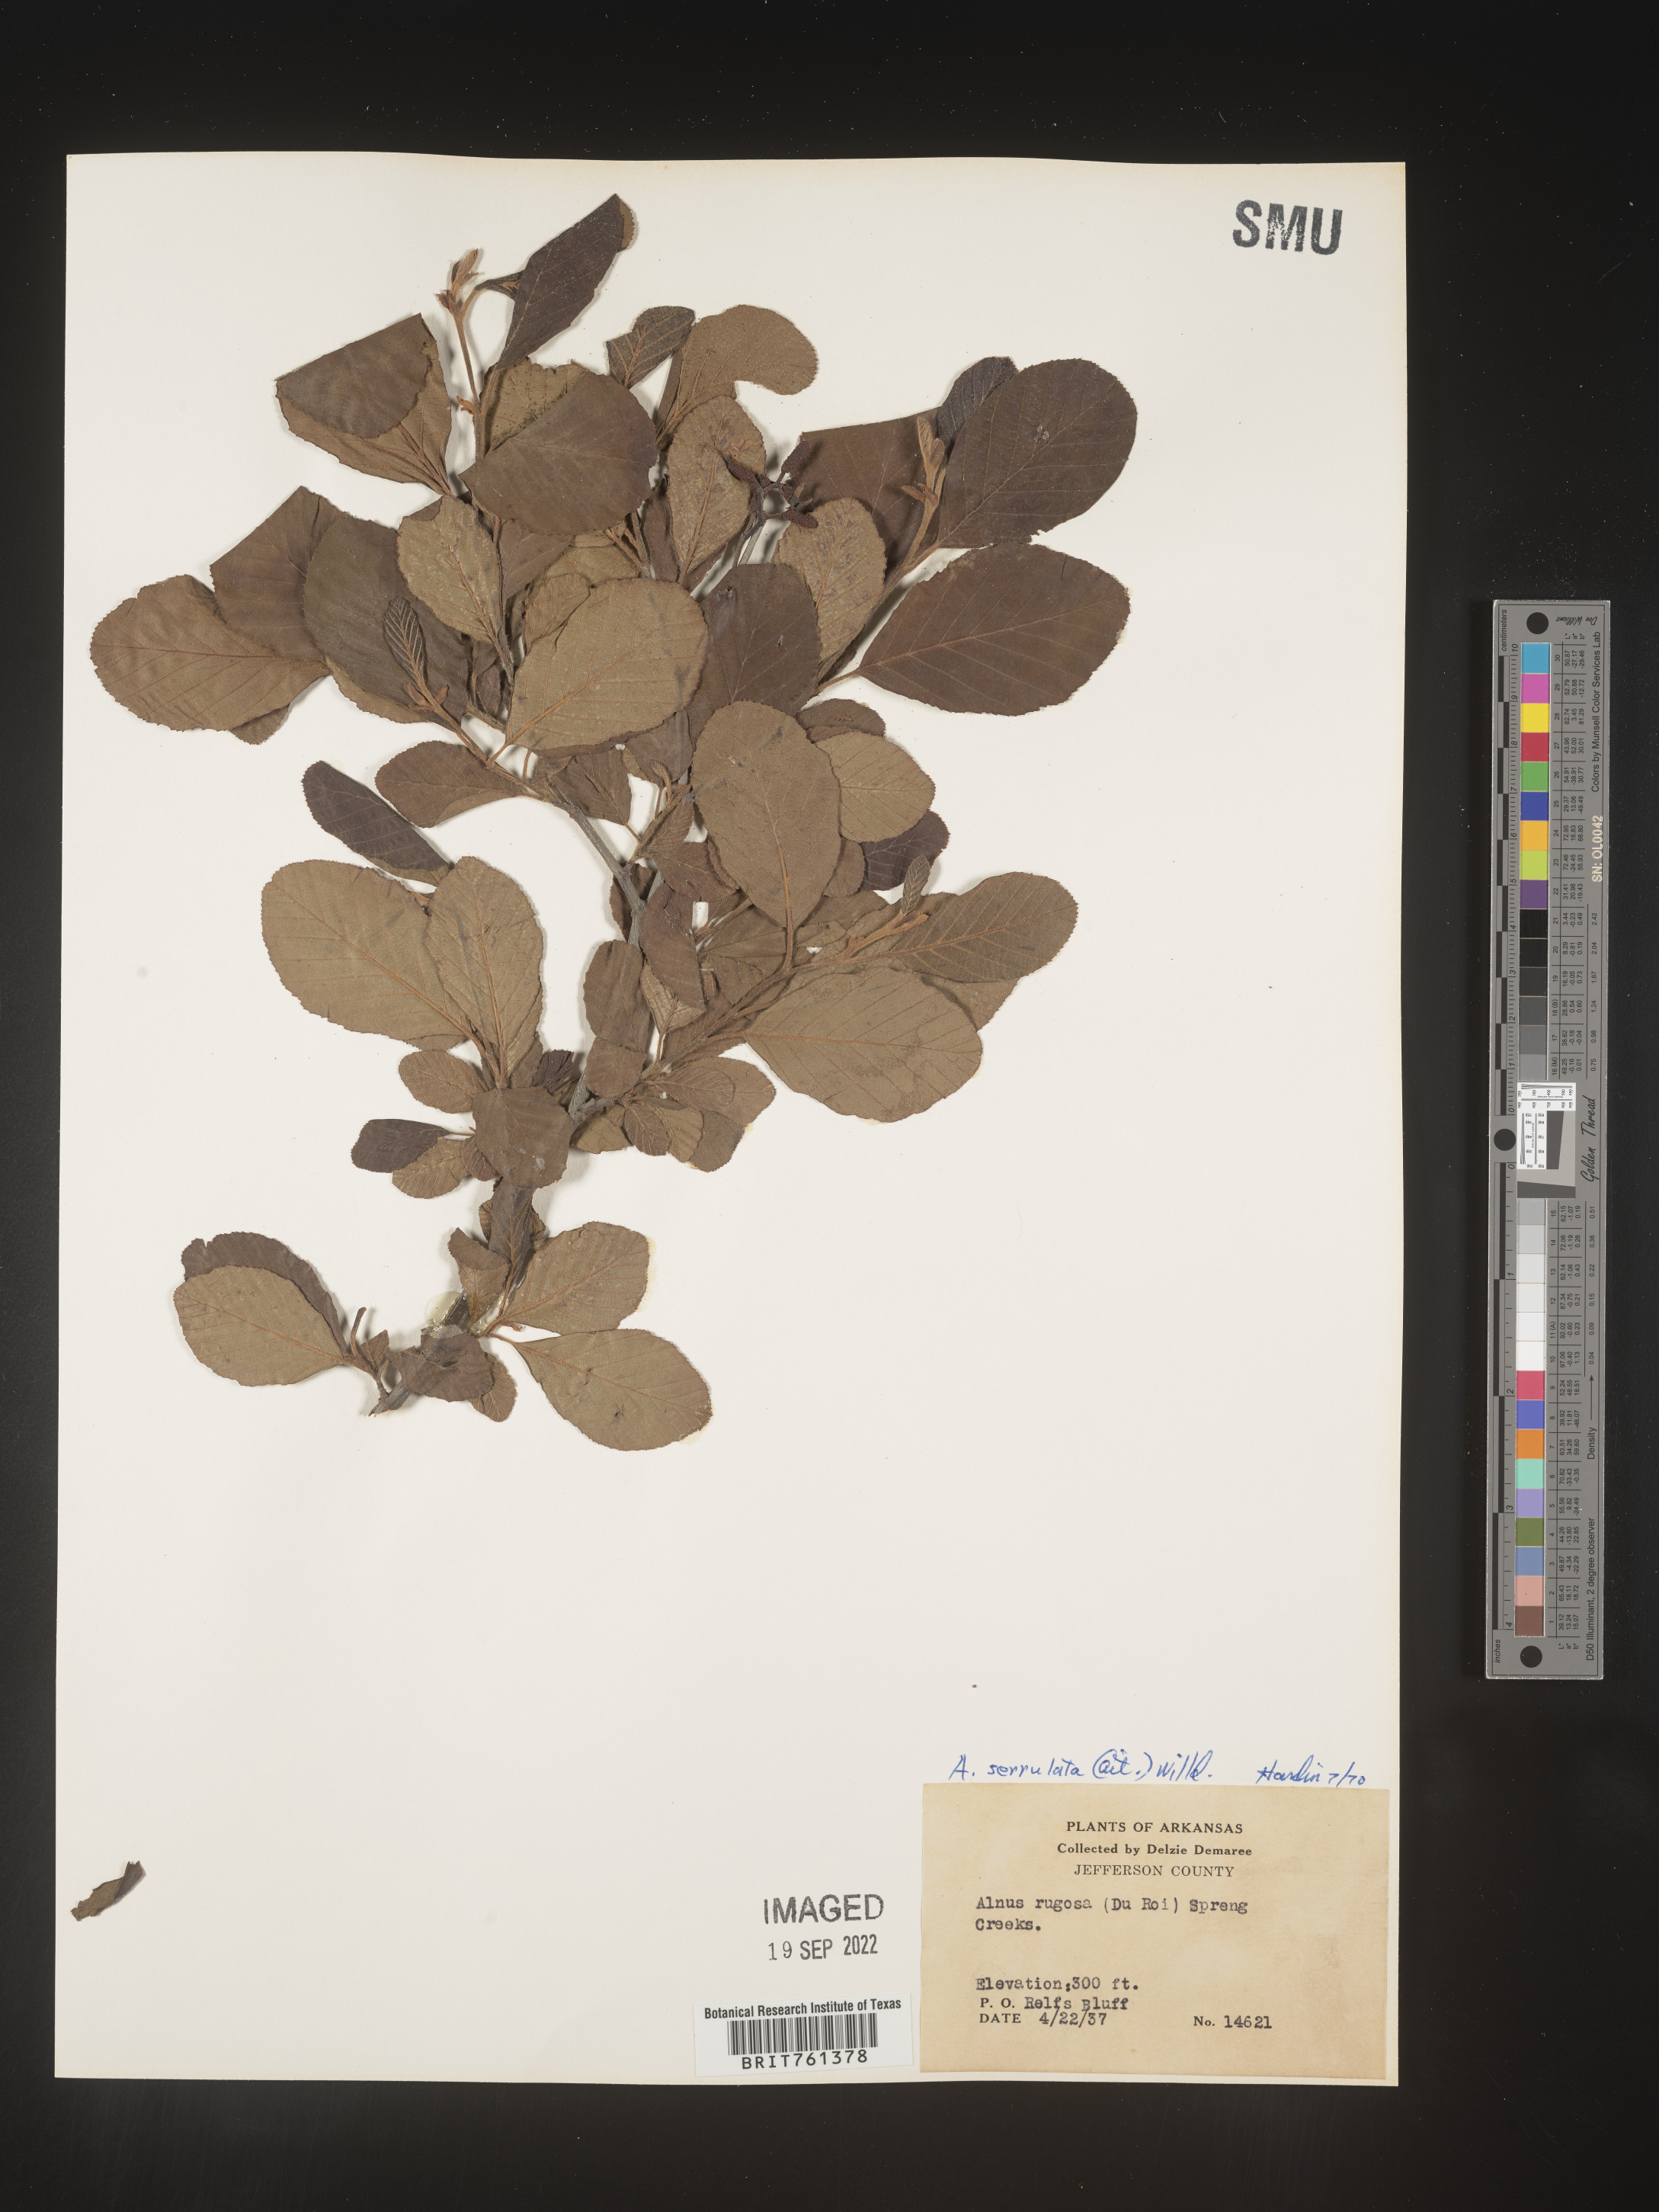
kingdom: Plantae
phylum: Tracheophyta
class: Magnoliopsida
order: Fagales
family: Betulaceae
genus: Alnus
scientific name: Alnus serrulata
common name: Hazel alder
